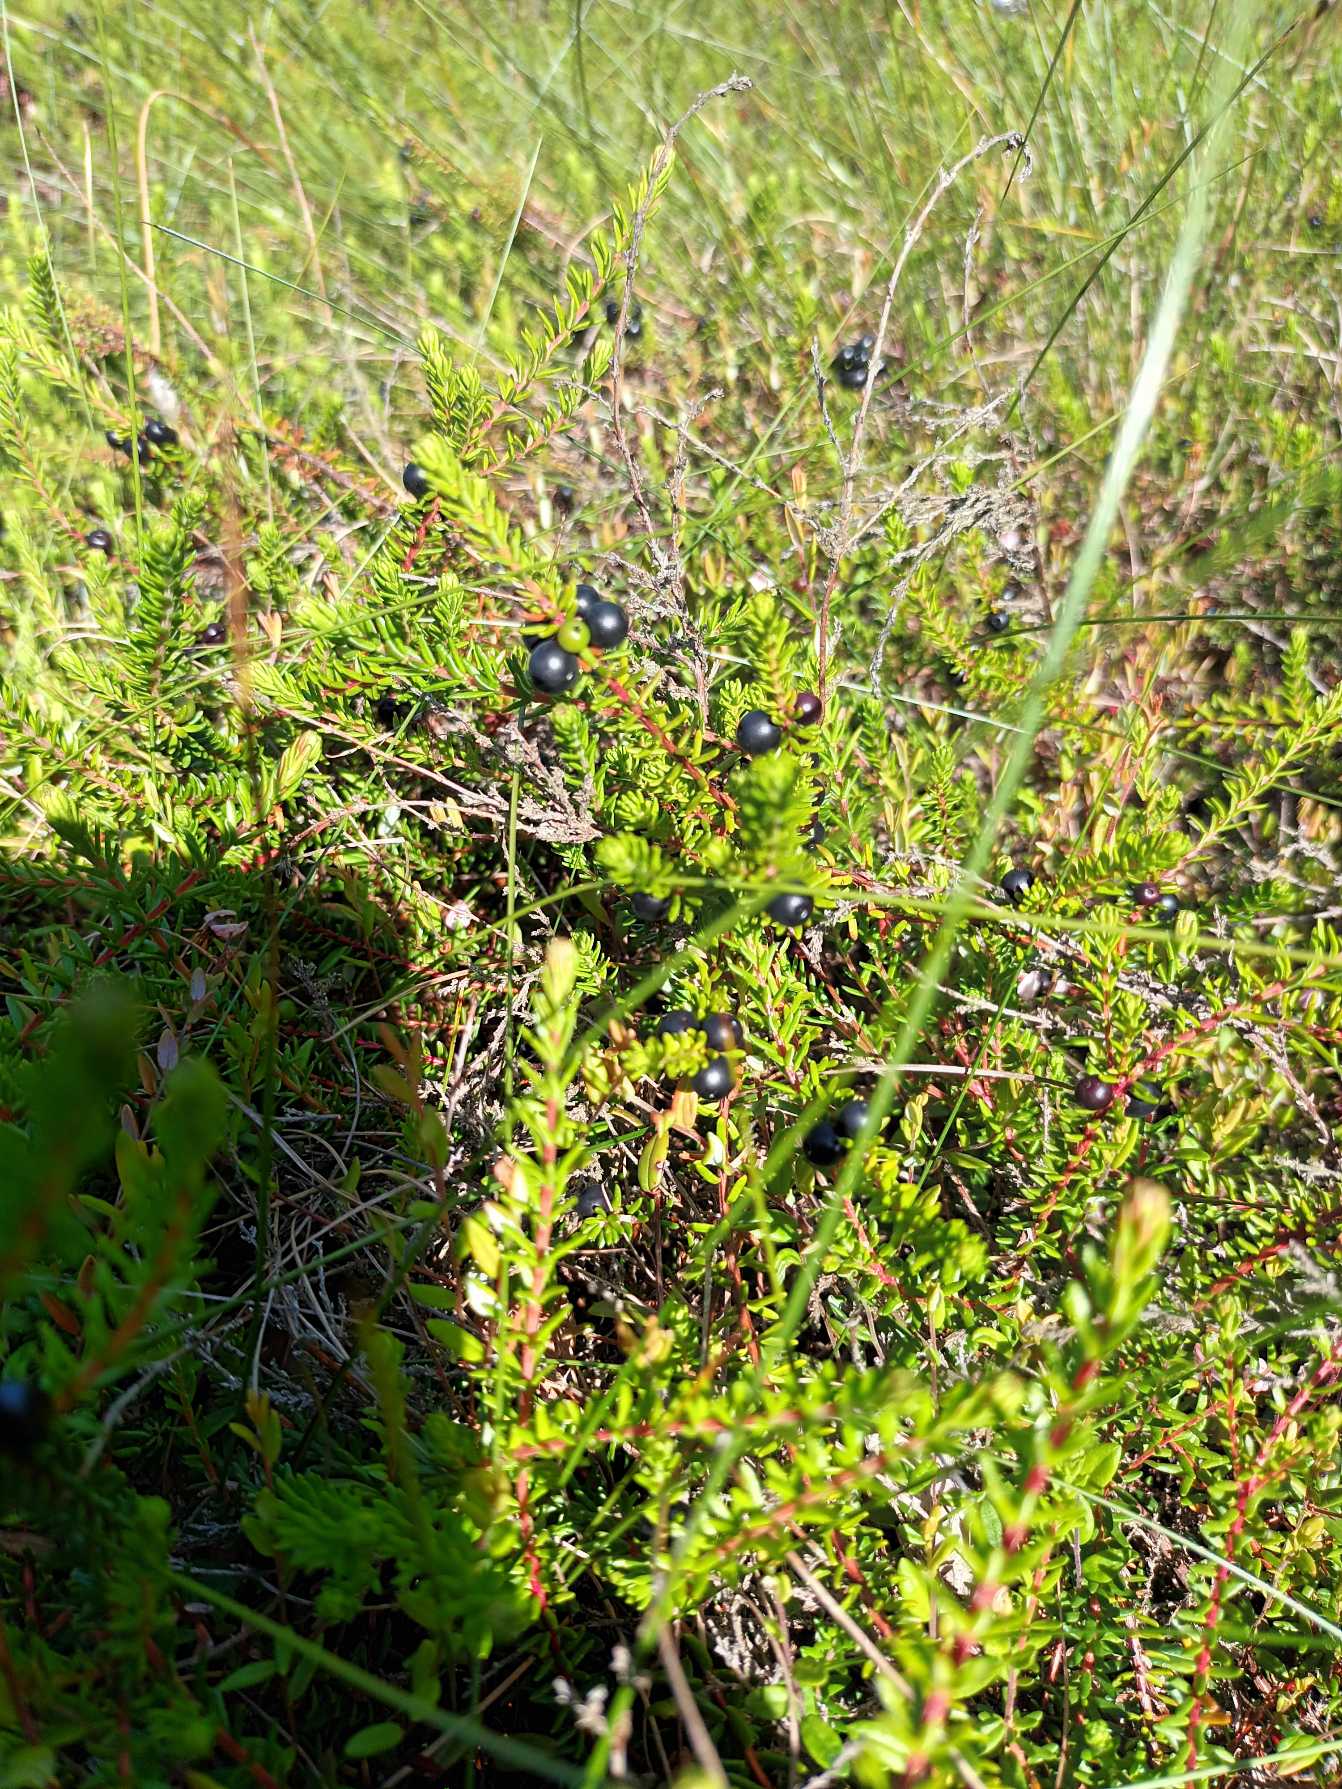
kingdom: Plantae
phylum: Tracheophyta
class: Magnoliopsida
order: Ericales
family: Ericaceae
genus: Empetrum
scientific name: Empetrum nigrum
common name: Revling
